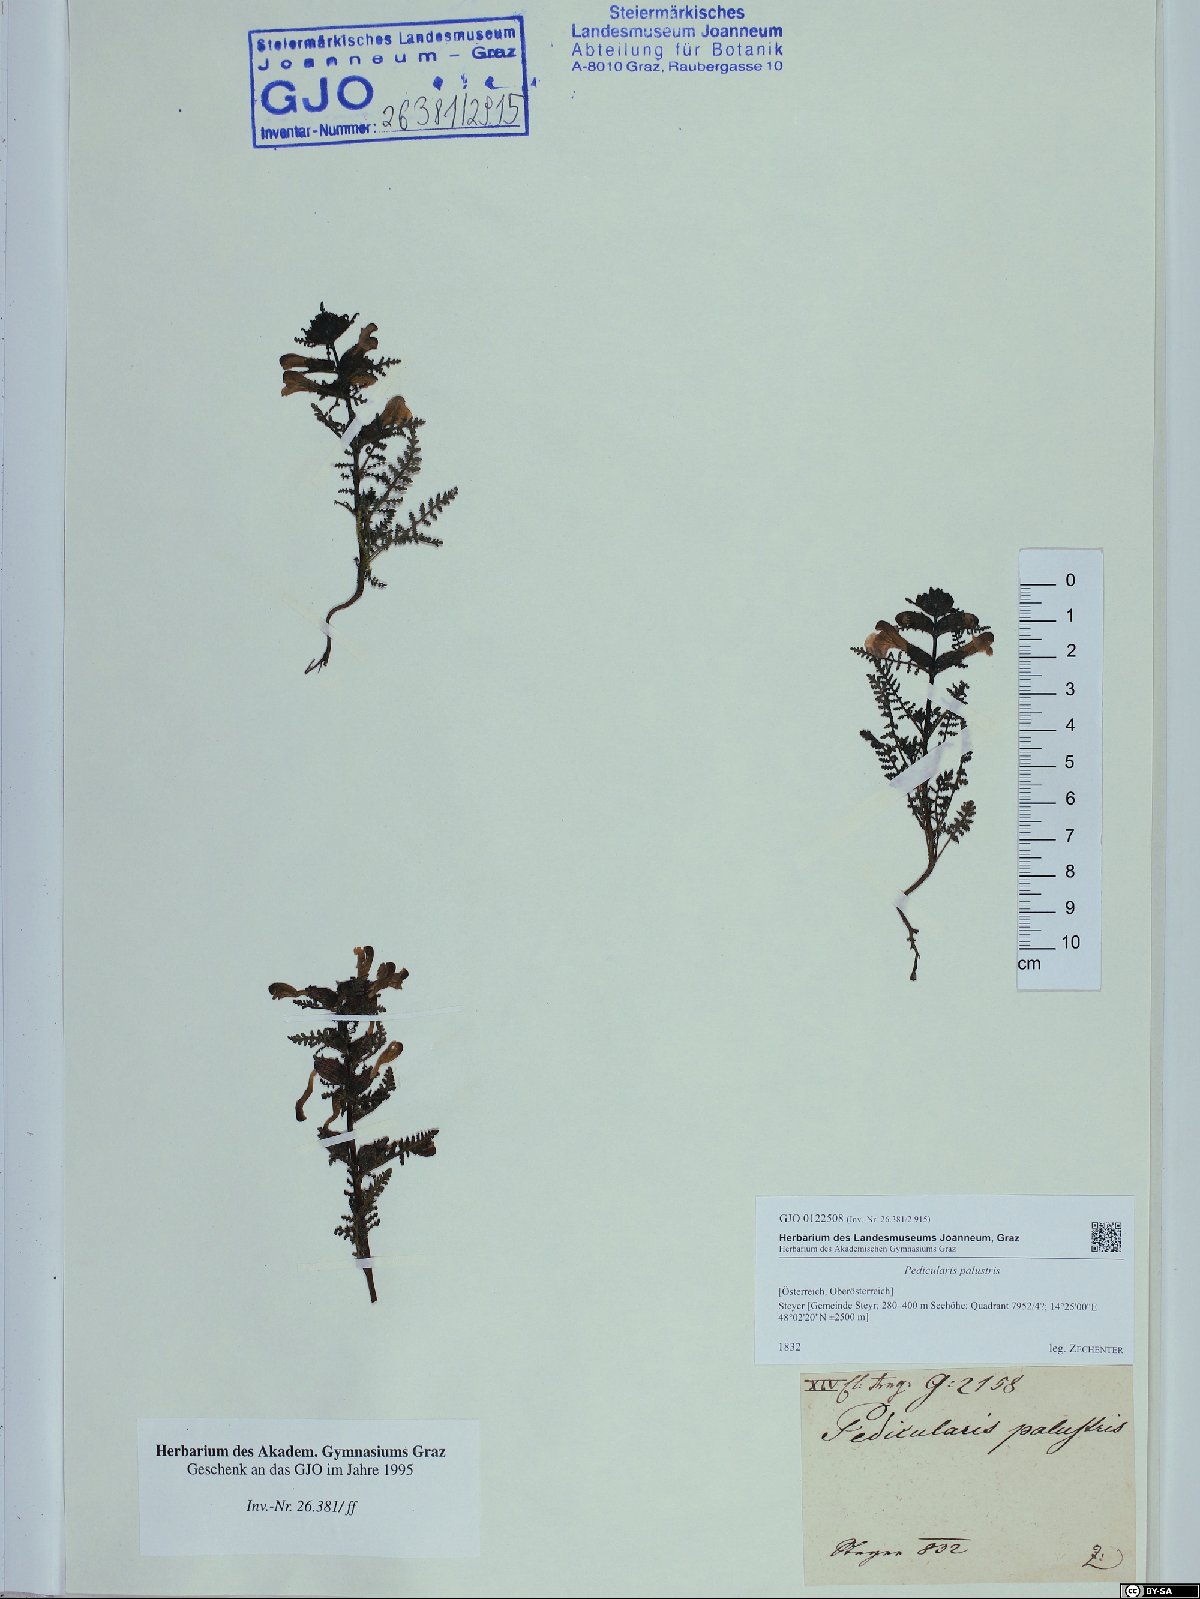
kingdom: Plantae
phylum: Tracheophyta
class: Magnoliopsida
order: Lamiales
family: Orobanchaceae
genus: Pedicularis
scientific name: Pedicularis palustris
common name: Marsh lousewort
